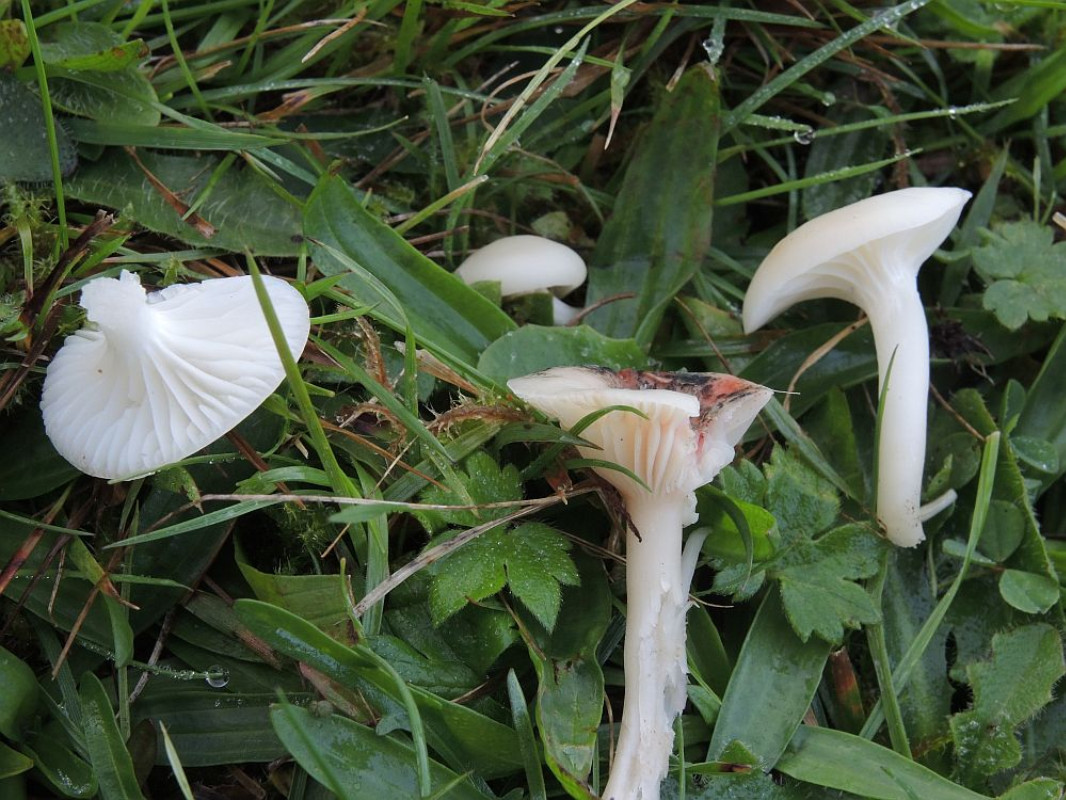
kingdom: Fungi
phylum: Basidiomycota
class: Agaricomycetes
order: Agaricales
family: Hygrophoraceae
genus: Cuphophyllus
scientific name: Cuphophyllus virgineus
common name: snehvid vokshat
